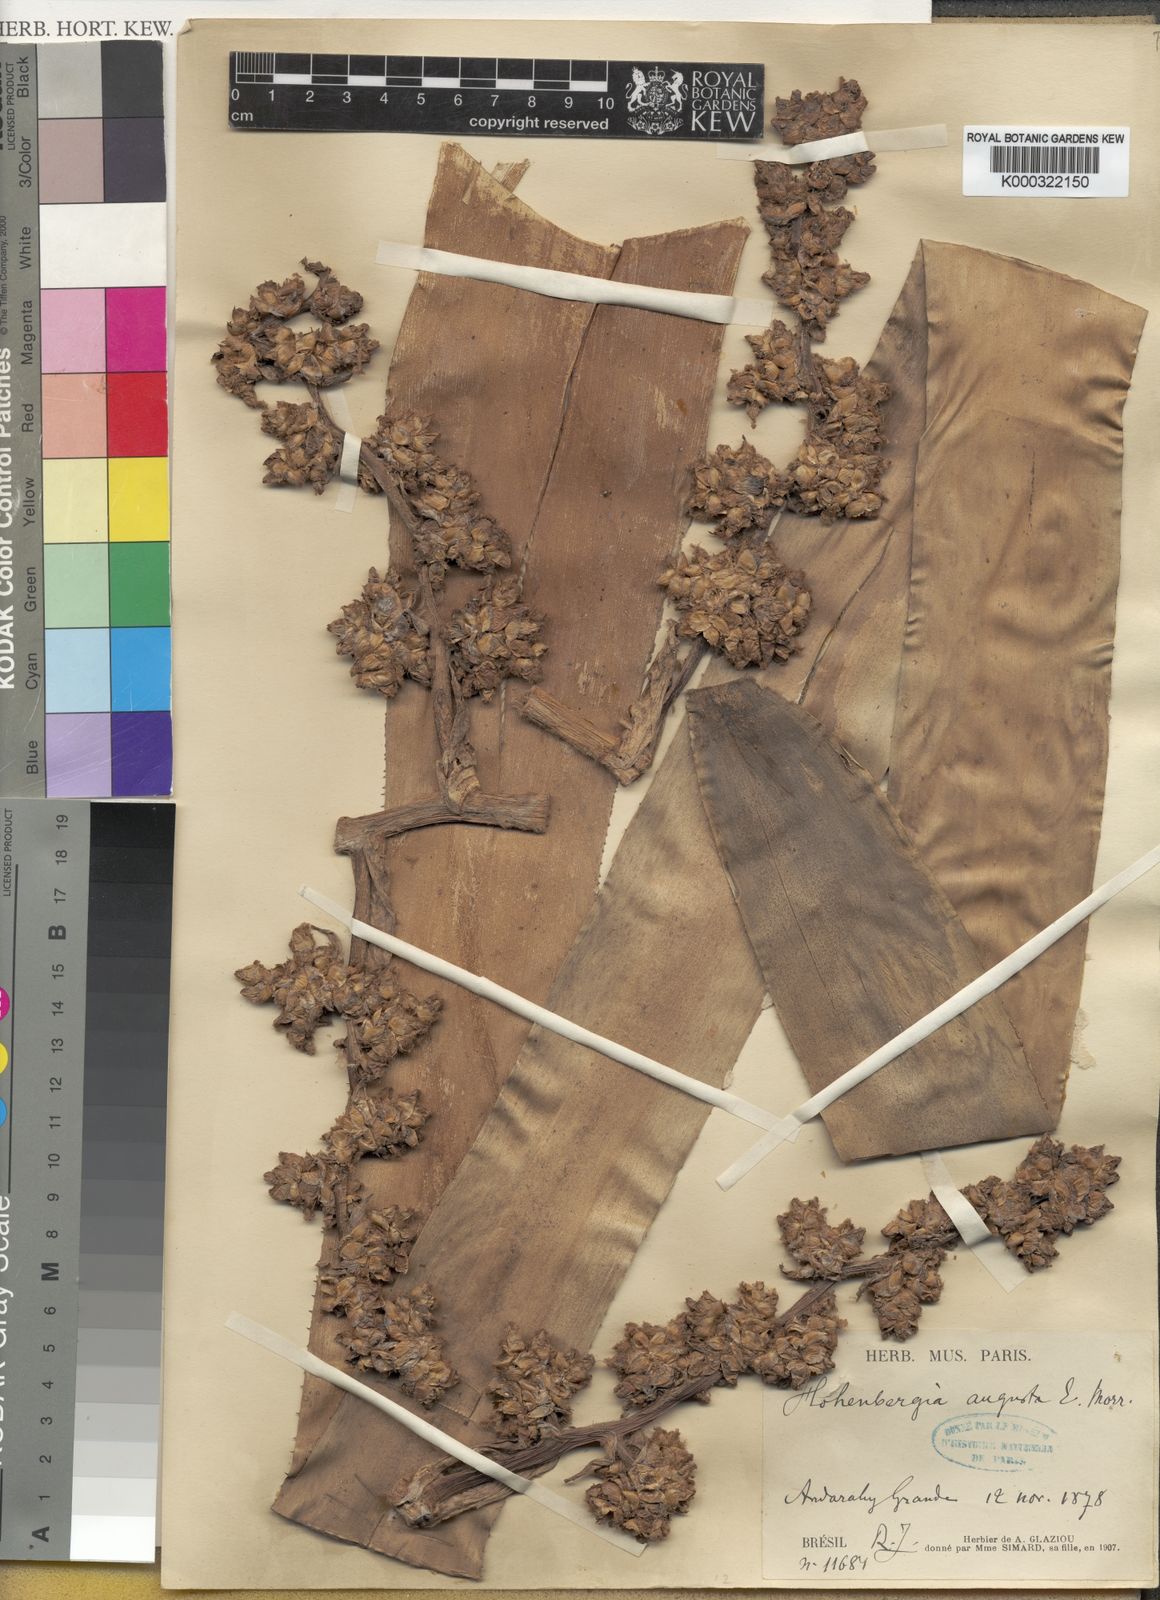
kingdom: Plantae
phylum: Tracheophyta
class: Liliopsida
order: Poales
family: Bromeliaceae
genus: Hohenbergia
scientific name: Hohenbergia
